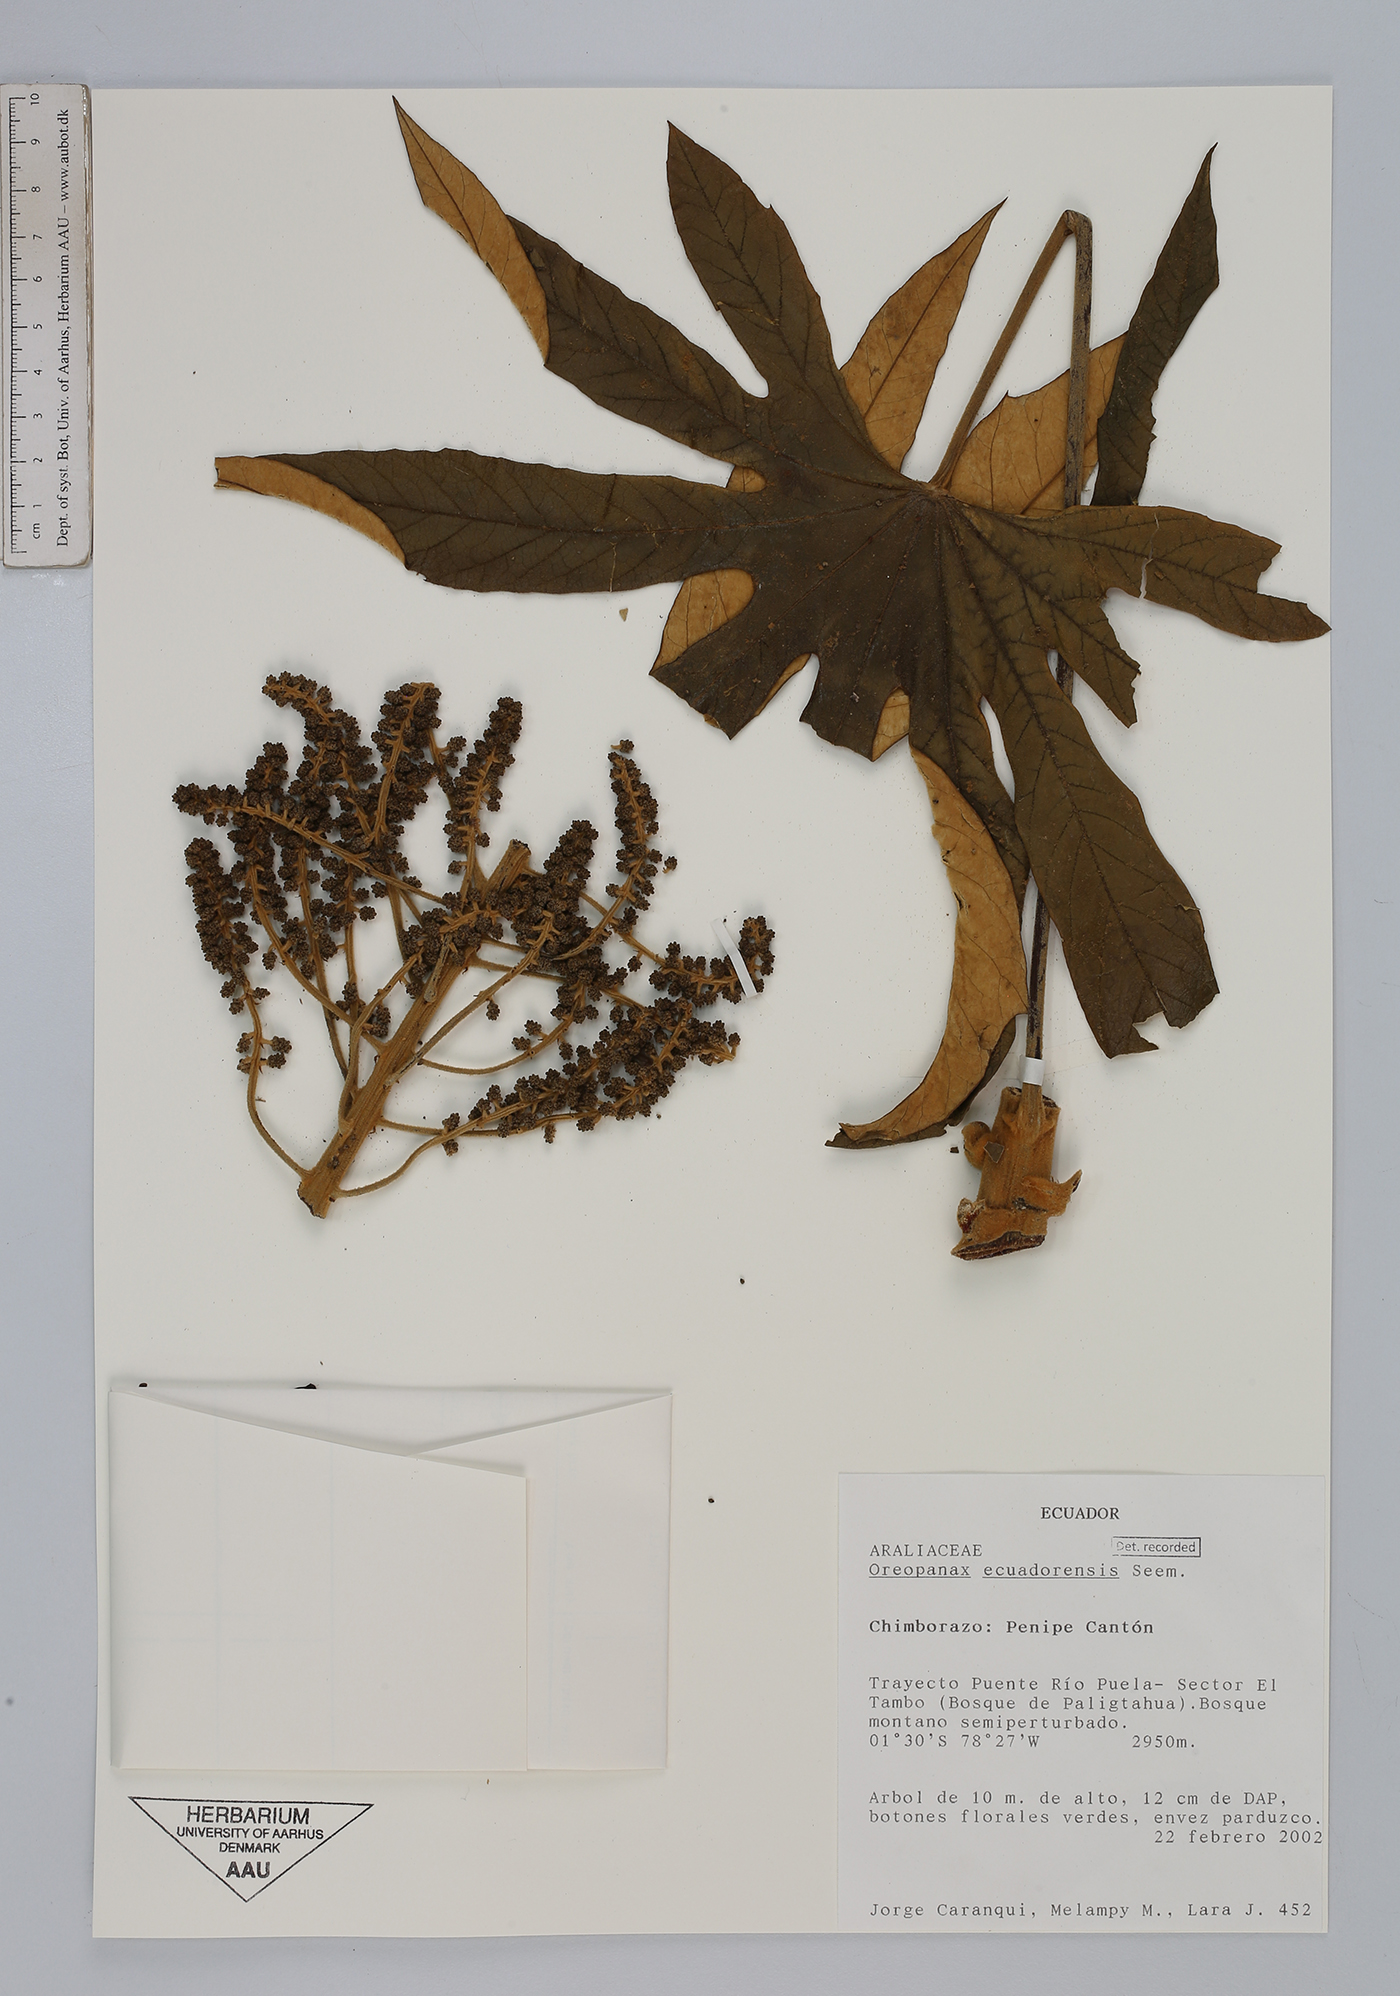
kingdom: Plantae
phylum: Tracheophyta
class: Magnoliopsida
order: Apiales
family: Araliaceae
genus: Oreopanax
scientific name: Oreopanax ecuadoriensis
